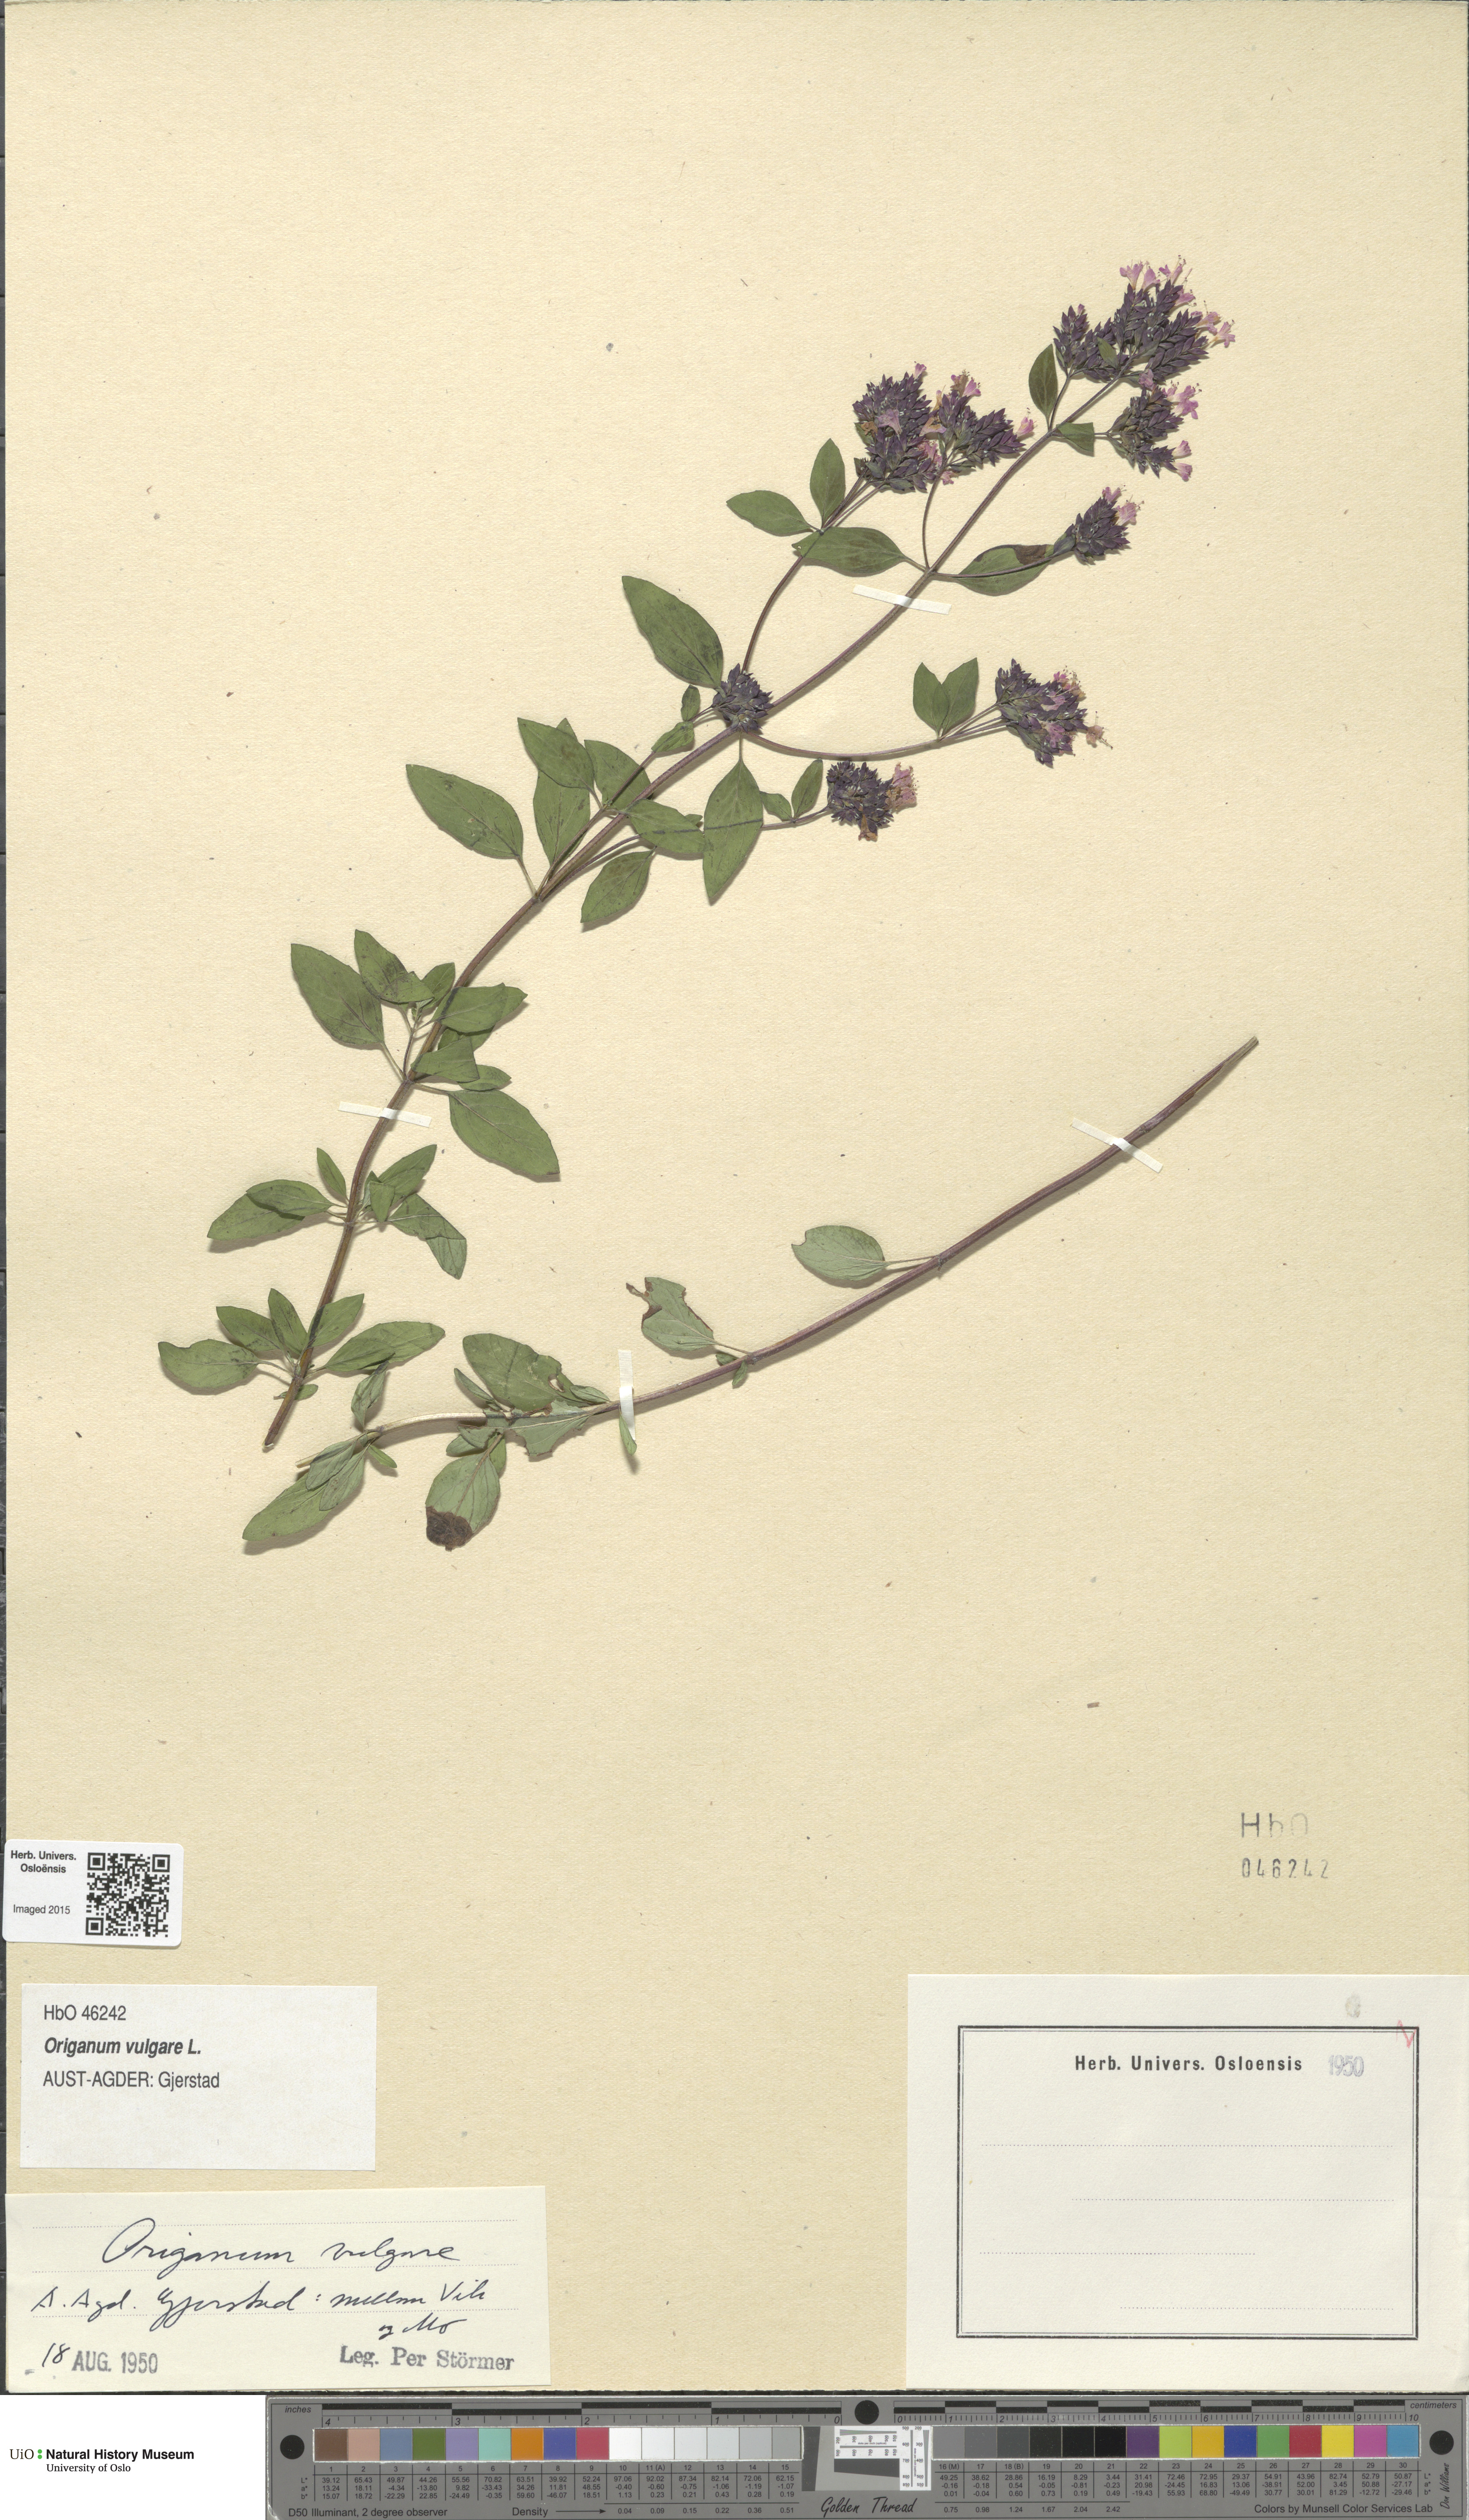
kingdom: Plantae
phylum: Tracheophyta
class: Magnoliopsida
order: Lamiales
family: Lamiaceae
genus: Origanum
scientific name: Origanum vulgare
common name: Wild marjoram
